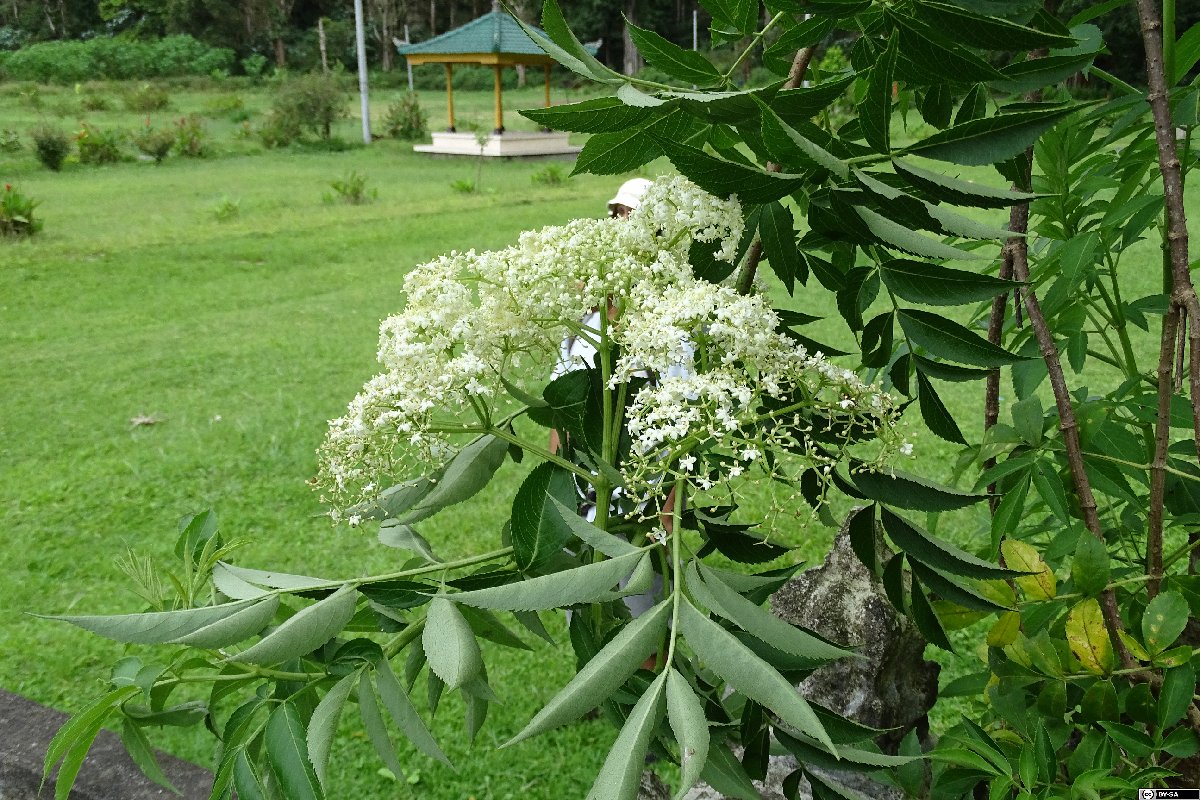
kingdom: Plantae
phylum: Tracheophyta
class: Magnoliopsida
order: Asterales
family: Campanulaceae
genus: Lobelia
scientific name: Lobelia tupa
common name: Devil's-tobacco
